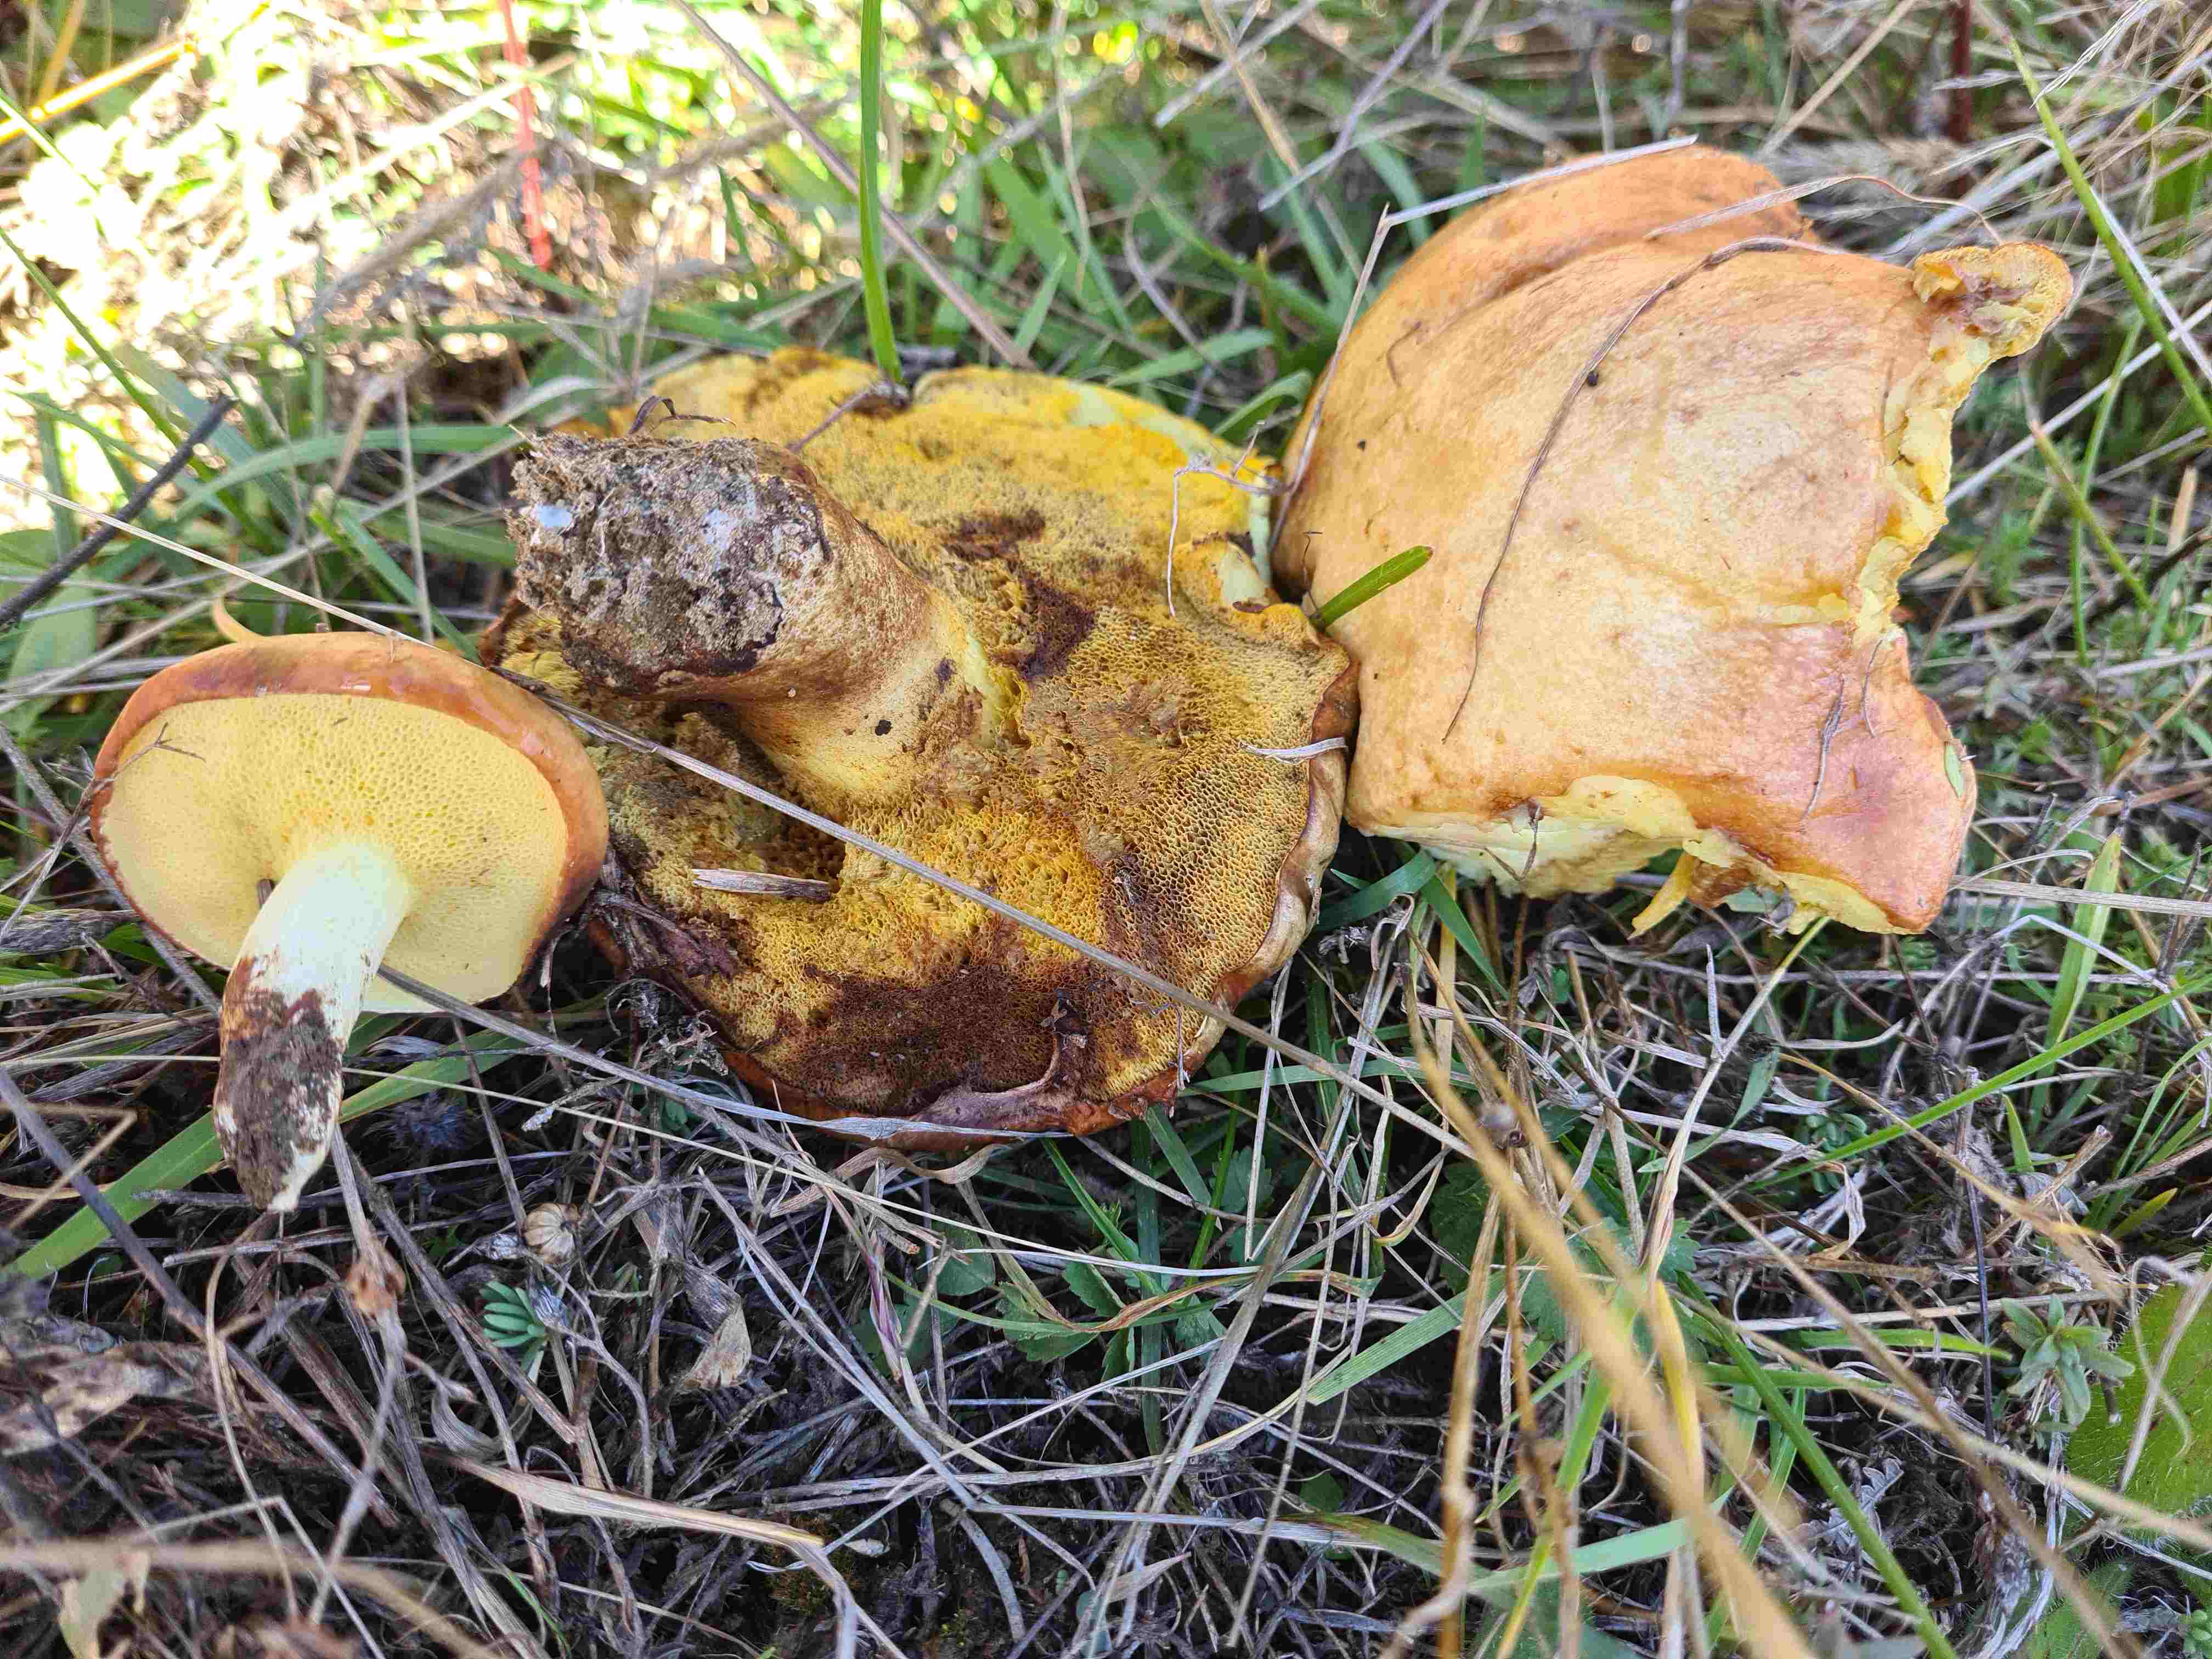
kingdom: Fungi
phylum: Basidiomycota
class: Agaricomycetes
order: Boletales
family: Suillaceae
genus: Suillus
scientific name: Suillus granulatus
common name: kornet slimrørhat
